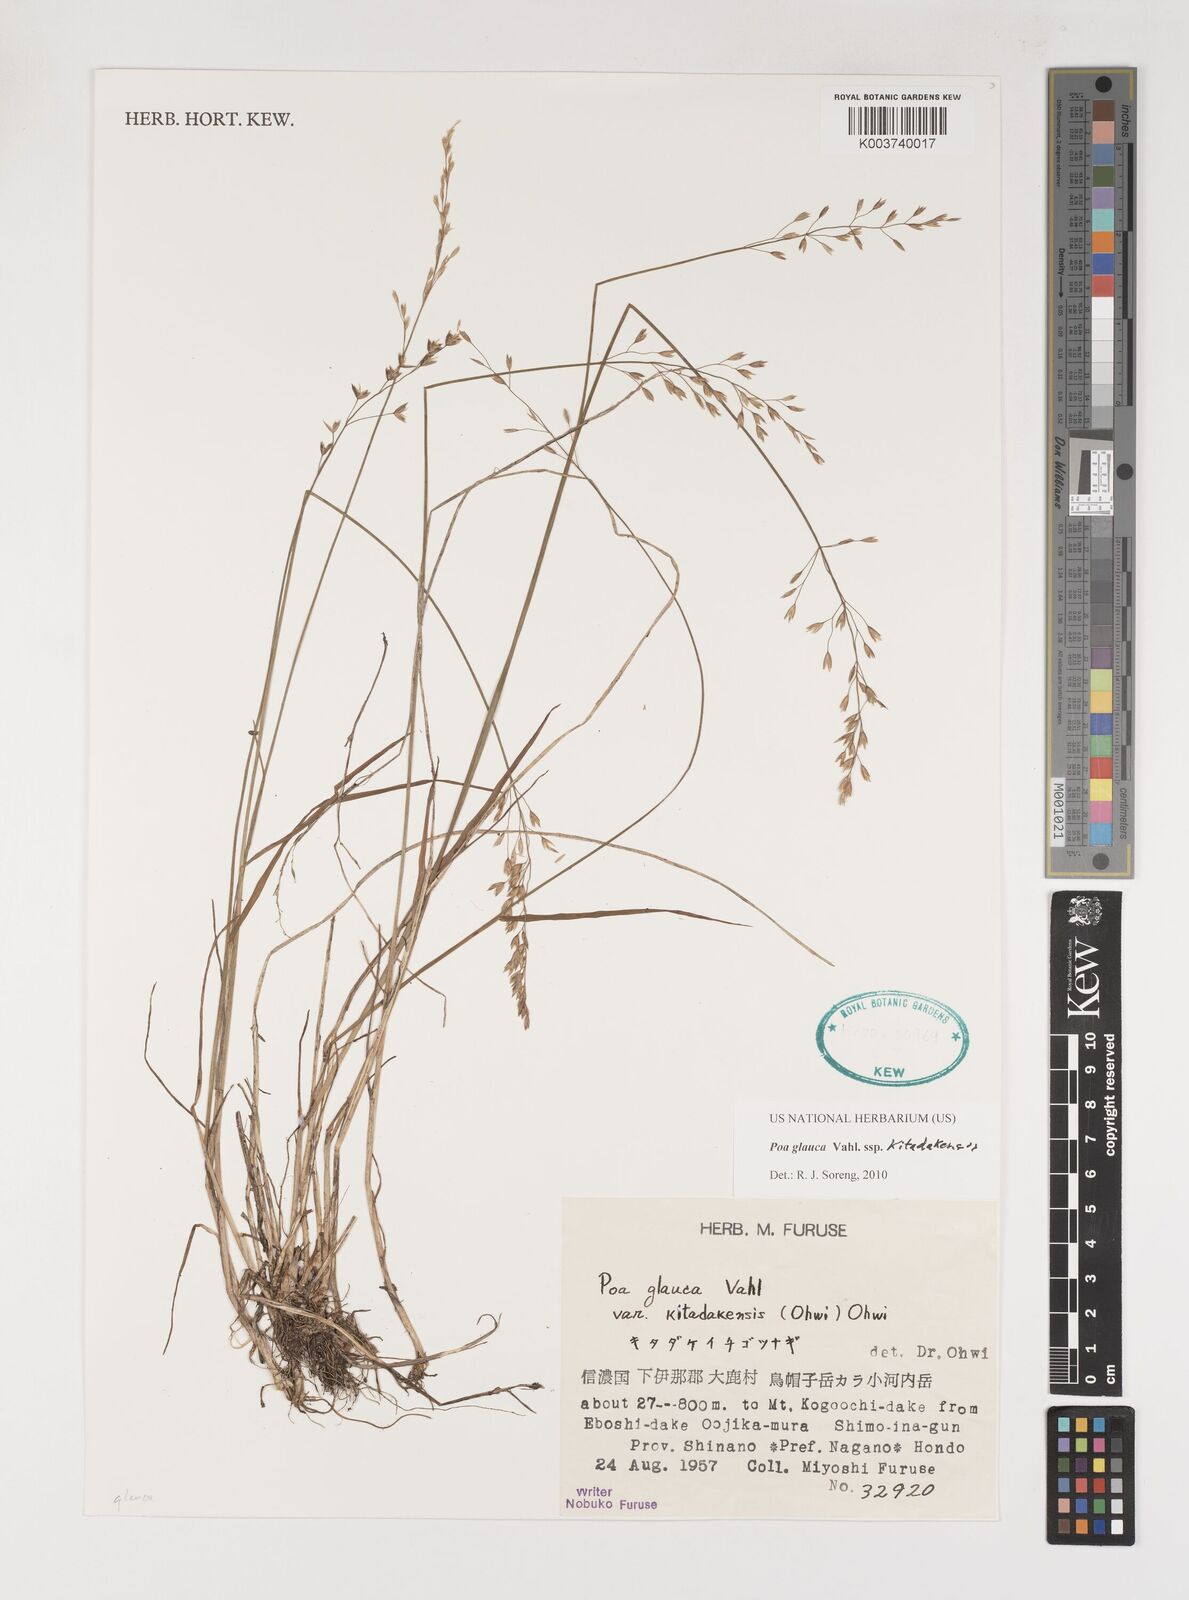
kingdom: Plantae
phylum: Tracheophyta
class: Liliopsida
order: Poales
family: Poaceae
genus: Poa
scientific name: Poa glauca
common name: Glaucous bluegrass
